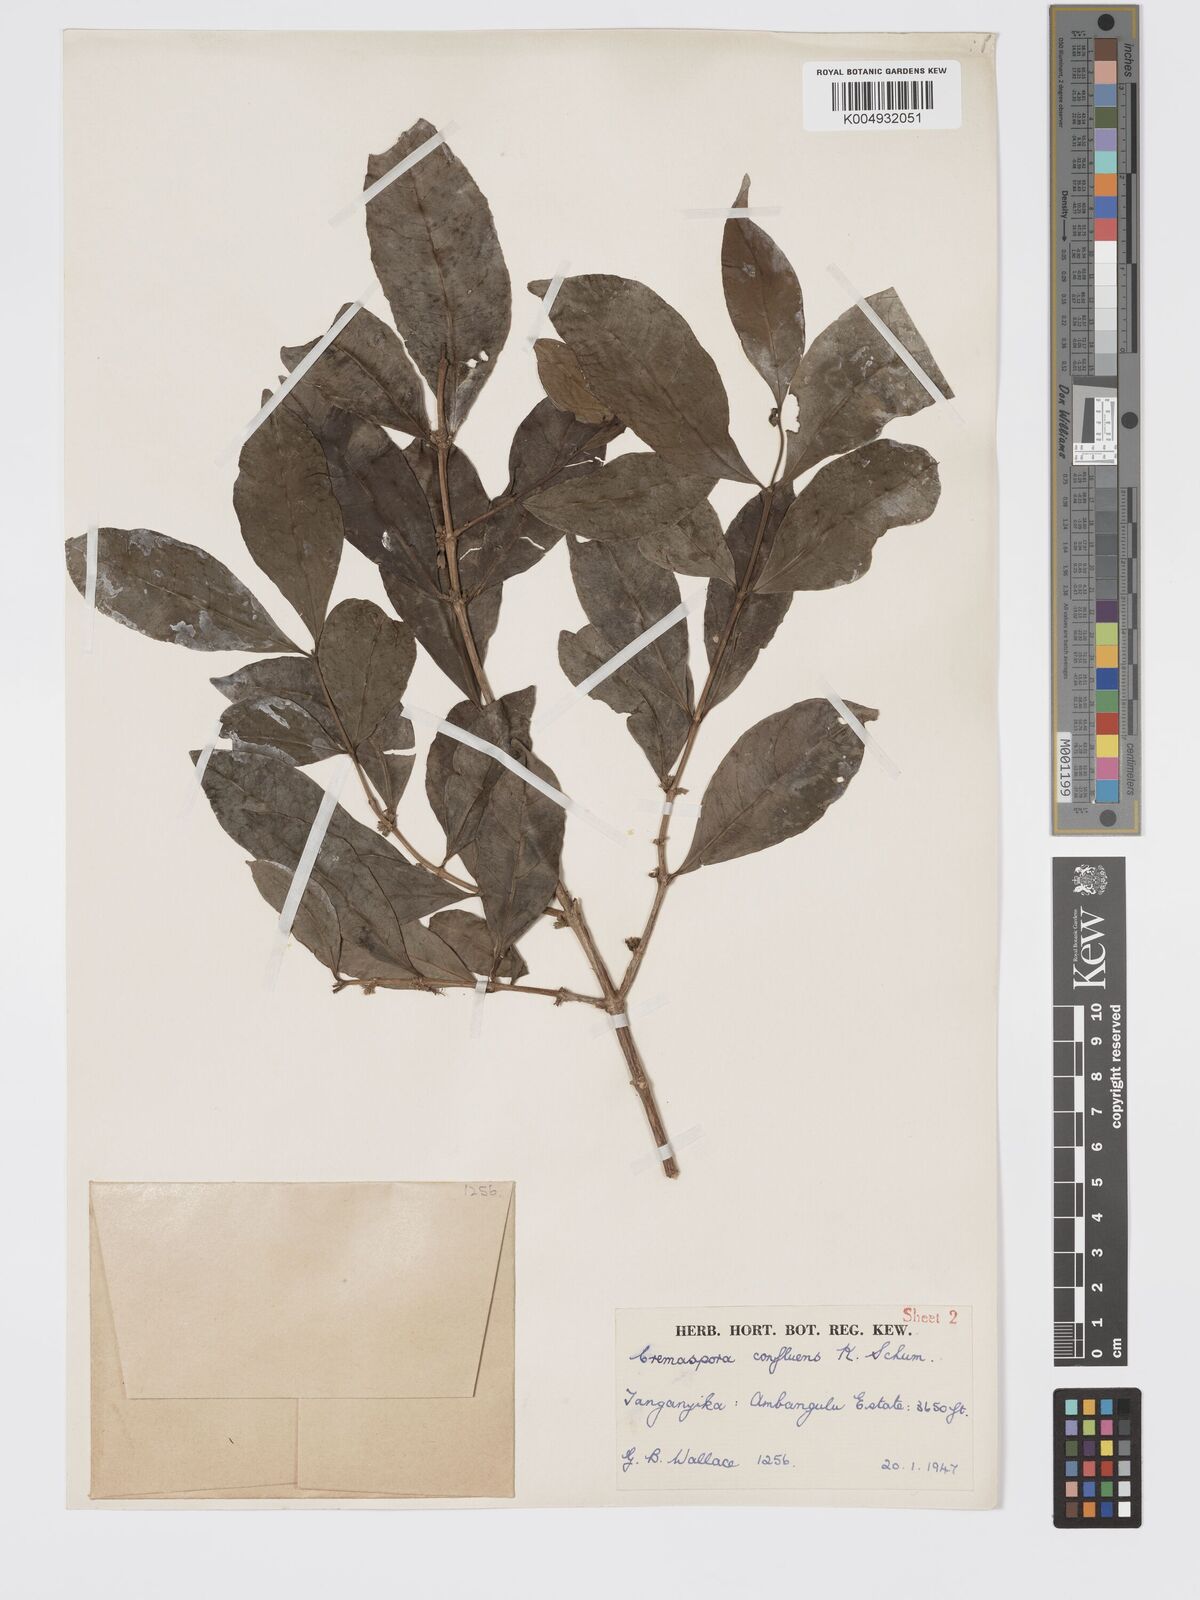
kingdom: Plantae
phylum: Tracheophyta
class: Magnoliopsida
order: Gentianales
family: Rubiaceae
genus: Tricalysia
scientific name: Tricalysia pallens
